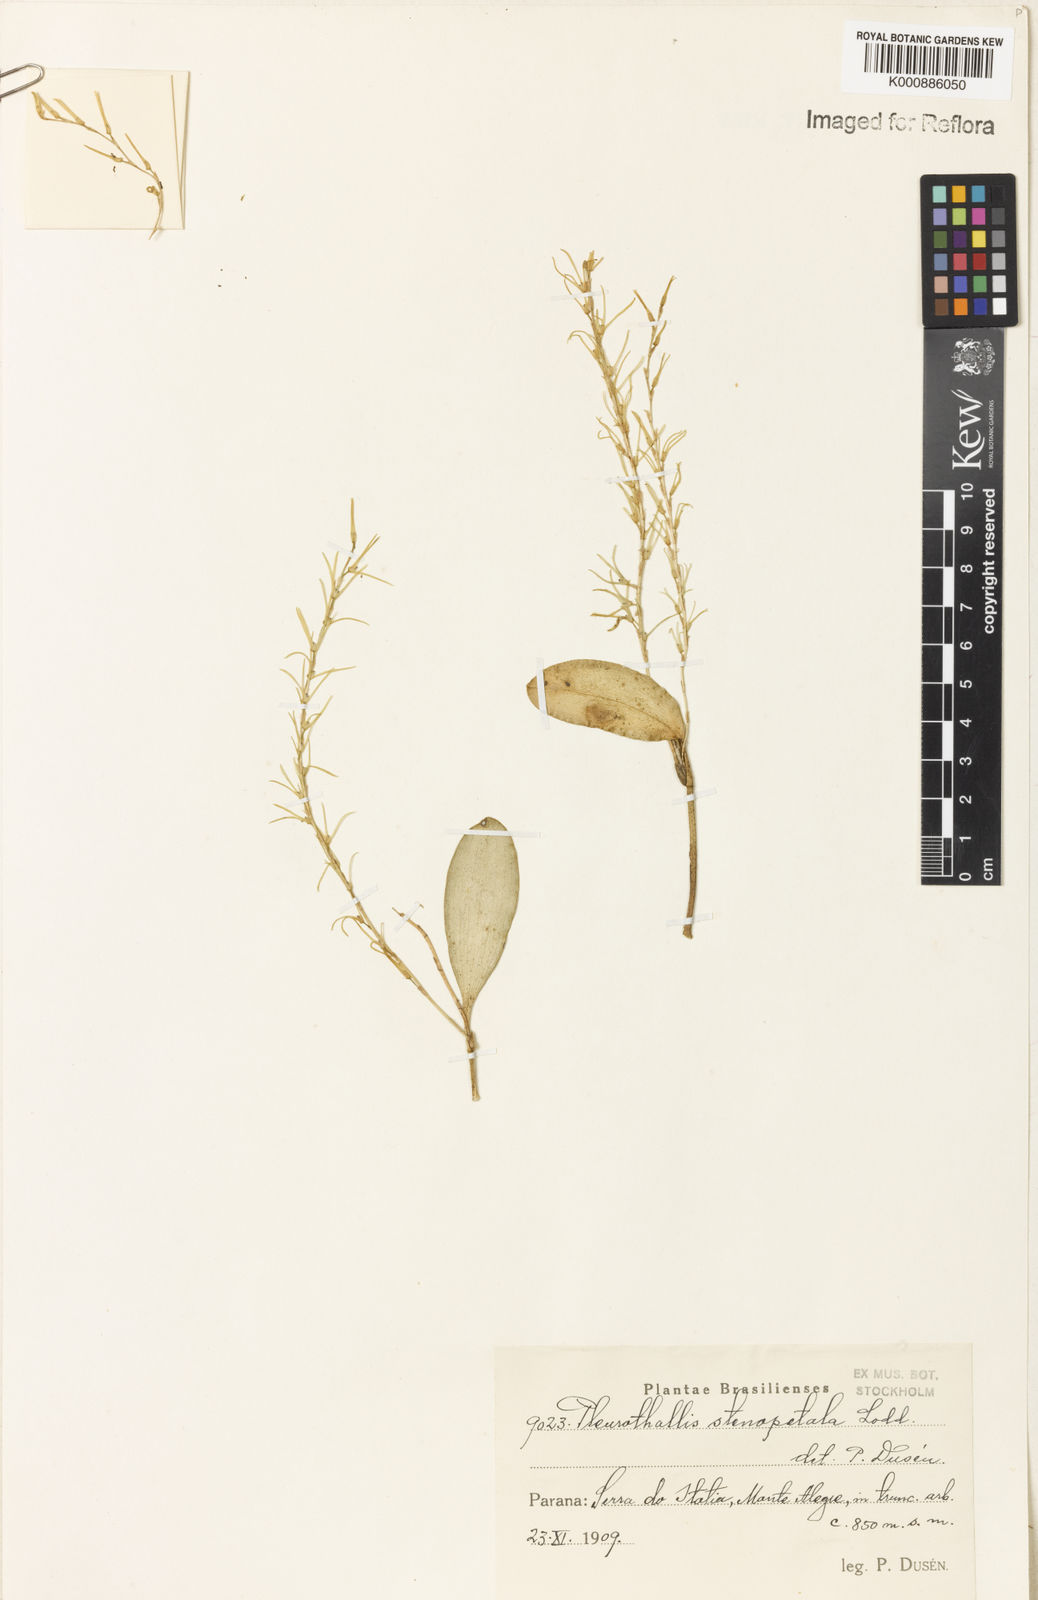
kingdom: Plantae
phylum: Tracheophyta
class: Liliopsida
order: Asparagales
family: Orchidaceae
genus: Stelis
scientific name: Stelis sclerophylla
